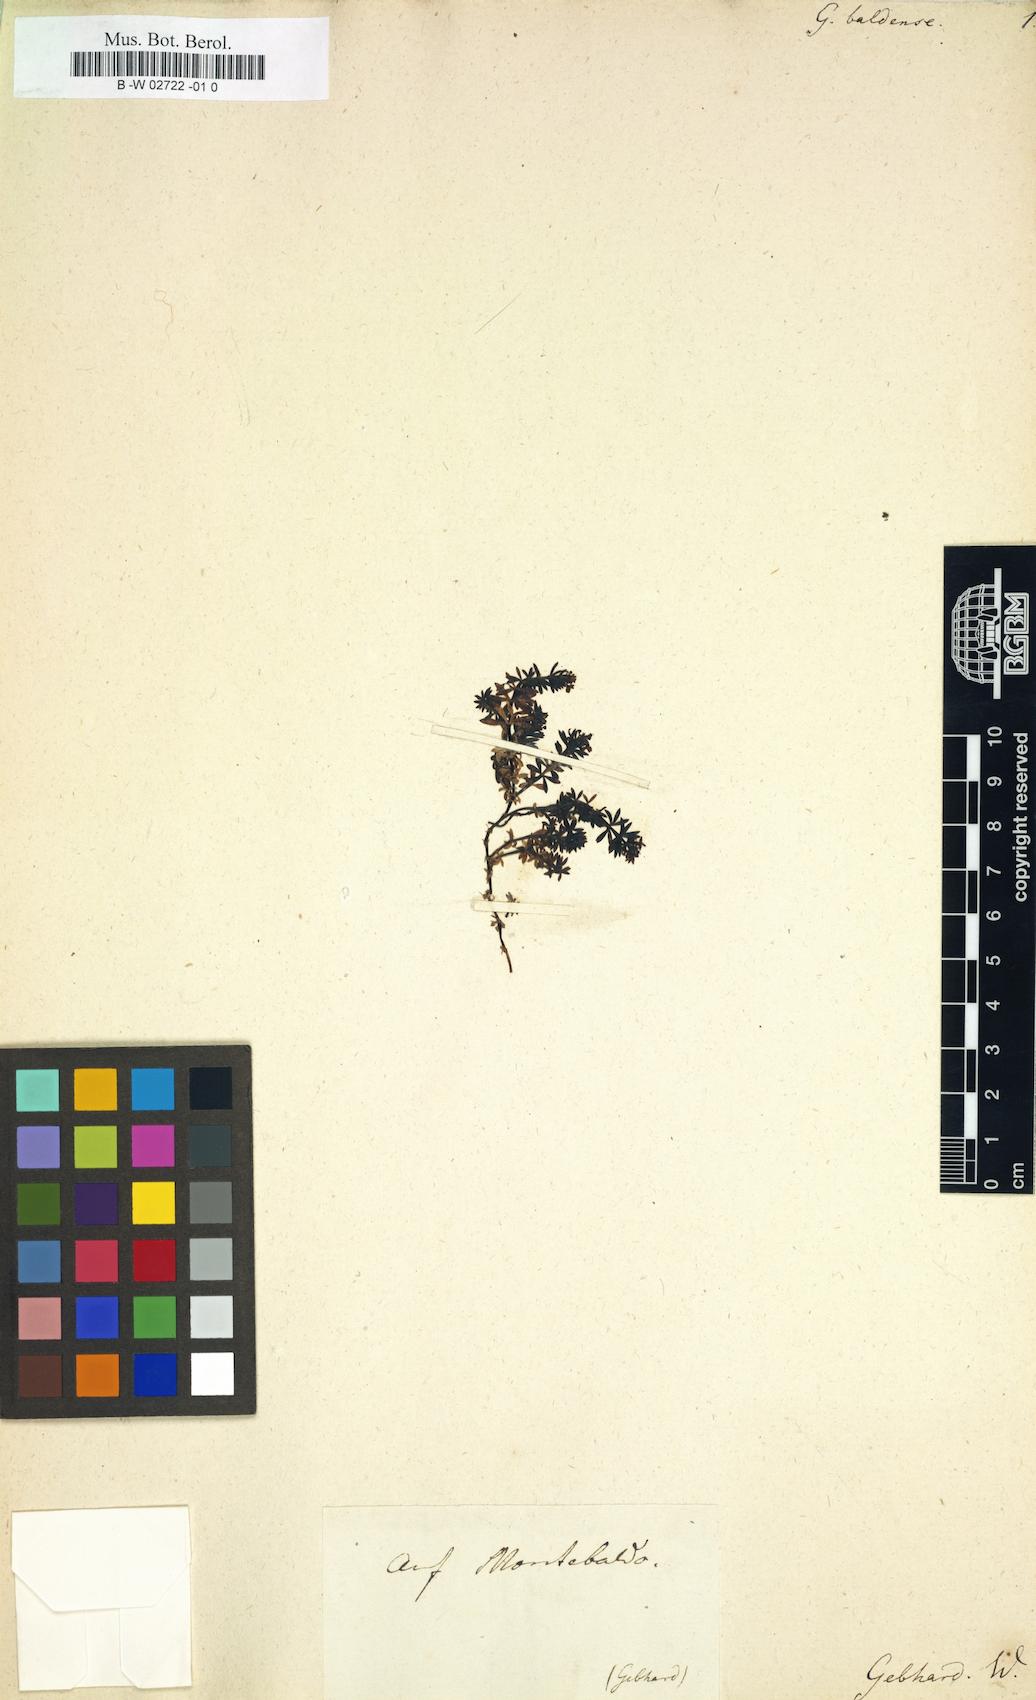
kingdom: Plantae
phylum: Tracheophyta
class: Magnoliopsida
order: Gentianales
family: Rubiaceae
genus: Galium
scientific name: Galium baldense
